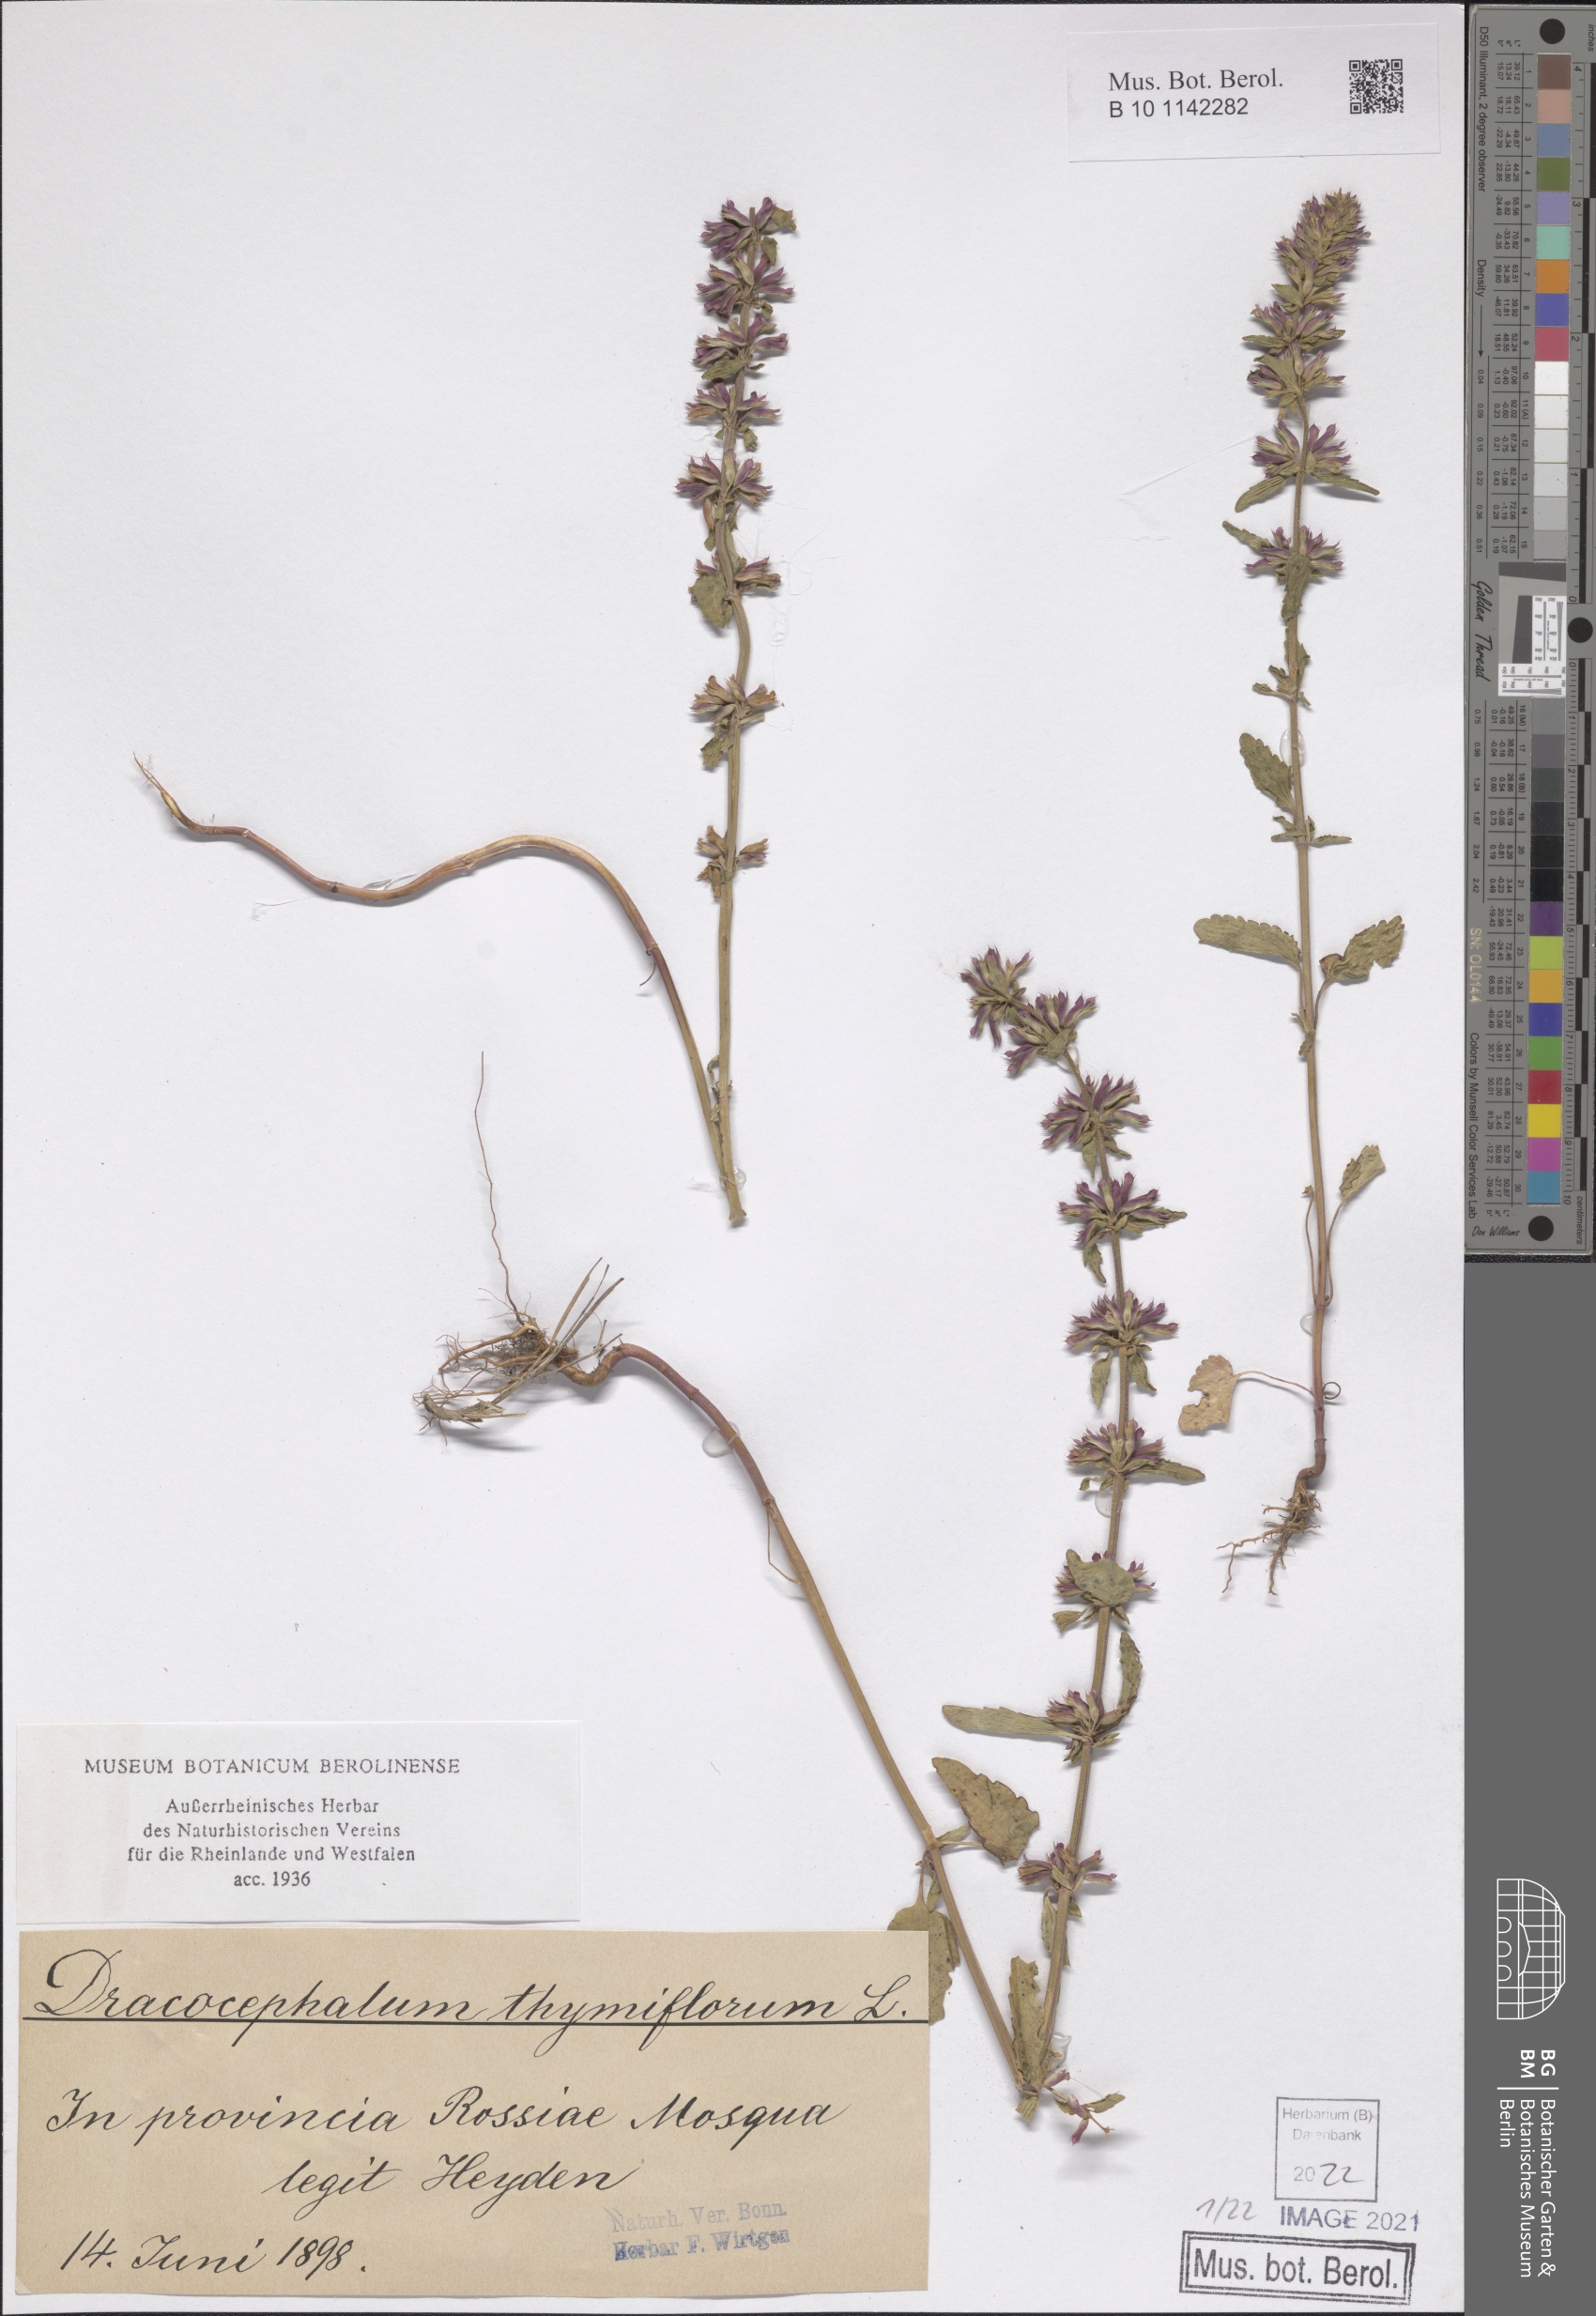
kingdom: Plantae
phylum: Tracheophyta
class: Magnoliopsida
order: Lamiales
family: Lamiaceae
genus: Dracocephalum
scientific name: Dracocephalum thymiflorum
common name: Thymeleaf dragonhead
